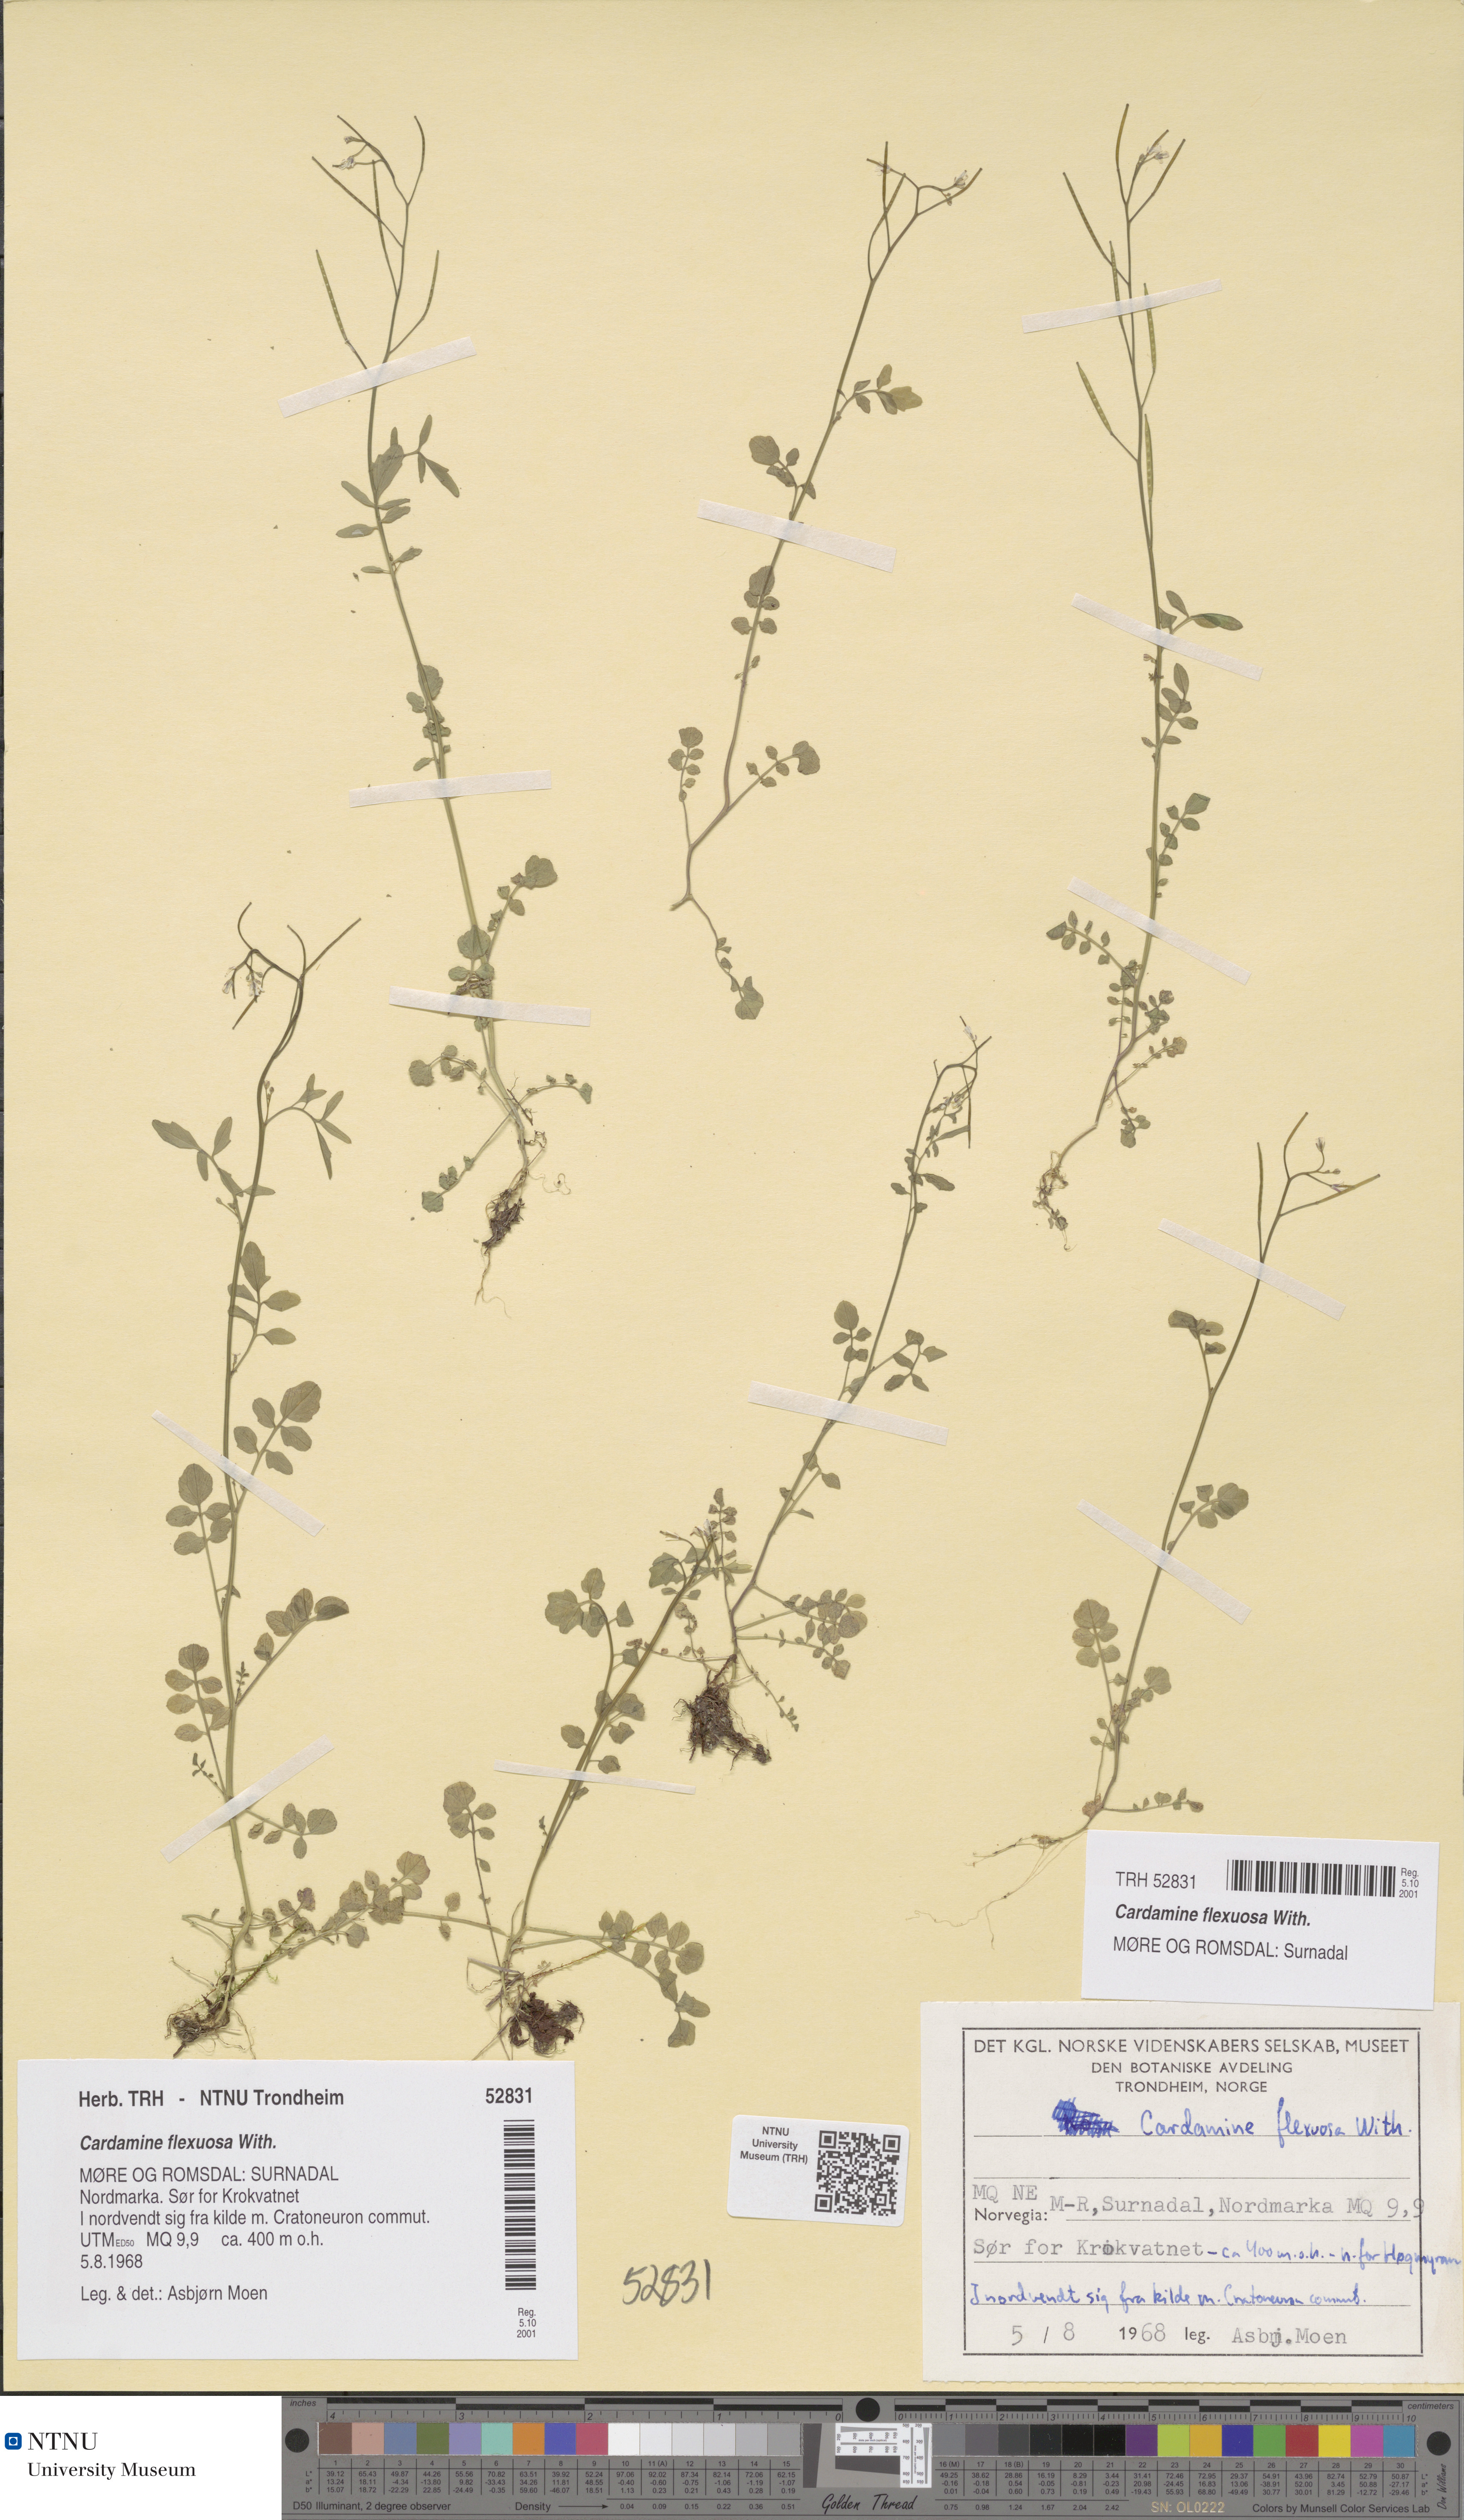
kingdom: Plantae
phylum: Tracheophyta
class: Magnoliopsida
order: Brassicales
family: Brassicaceae
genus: Cardamine
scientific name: Cardamine flexuosa
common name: Woodland bittercress
